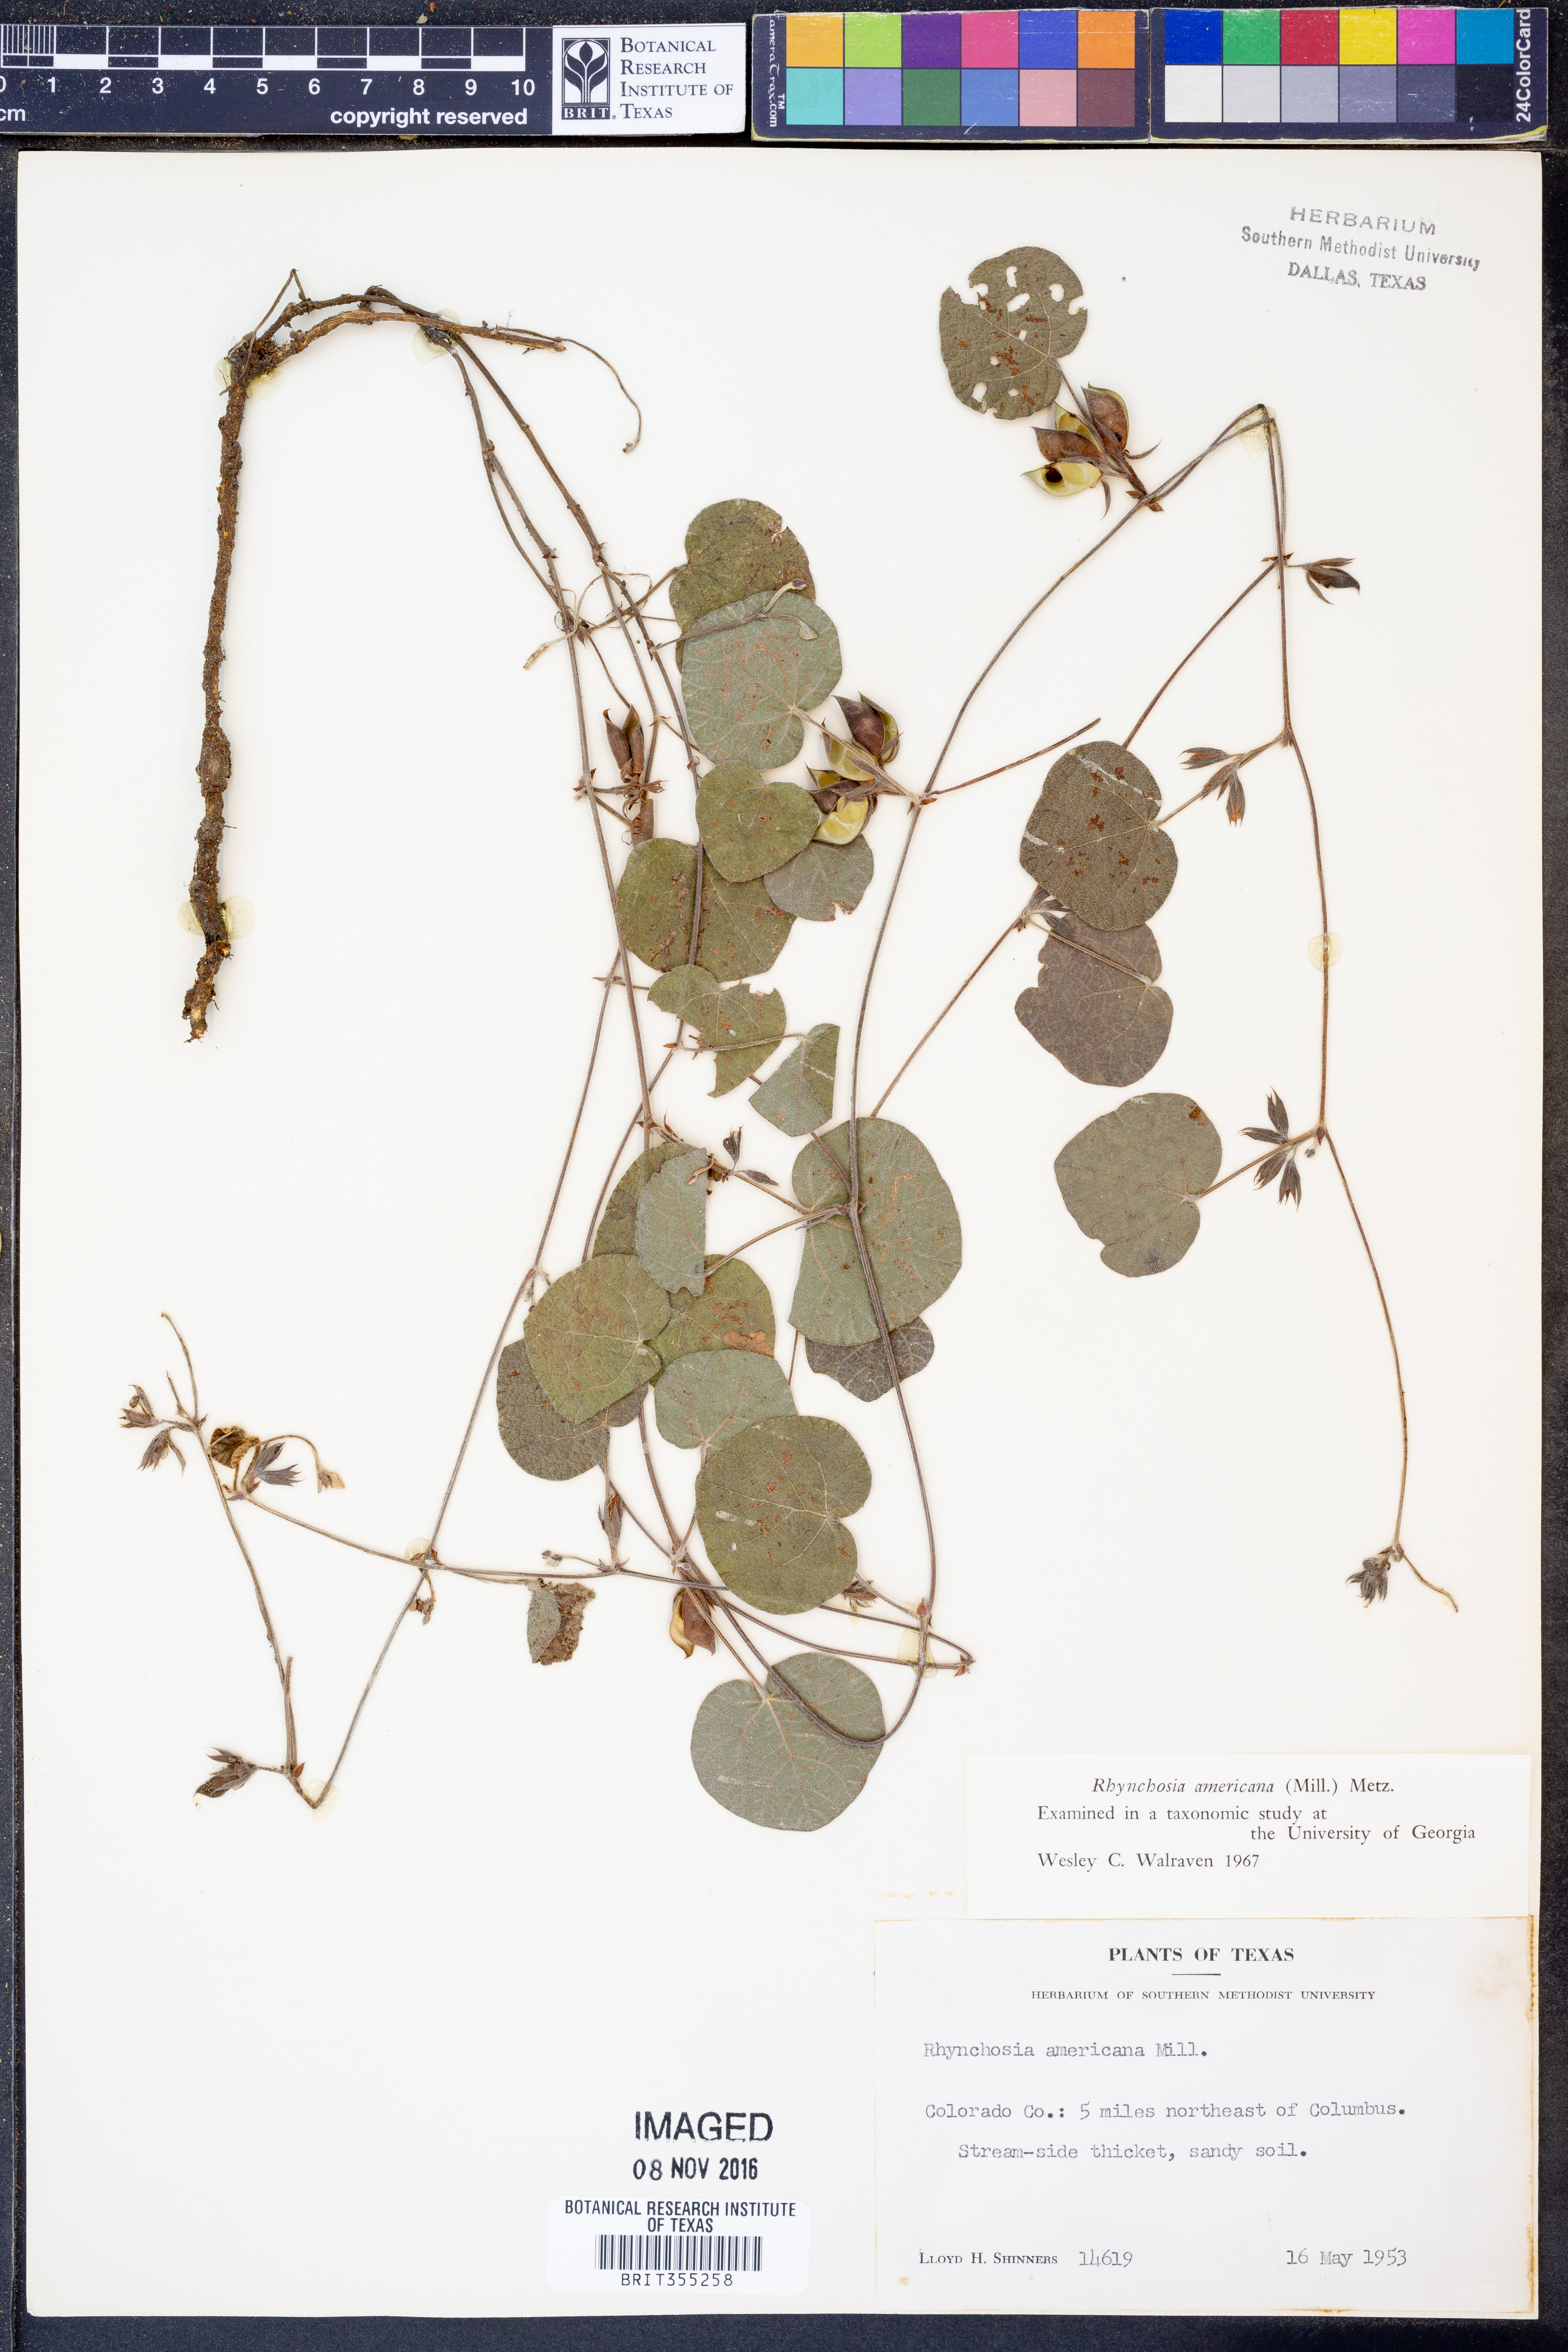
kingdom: Plantae
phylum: Tracheophyta
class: Magnoliopsida
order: Fabales
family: Fabaceae
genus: Rhynchosia
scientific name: Rhynchosia americana
